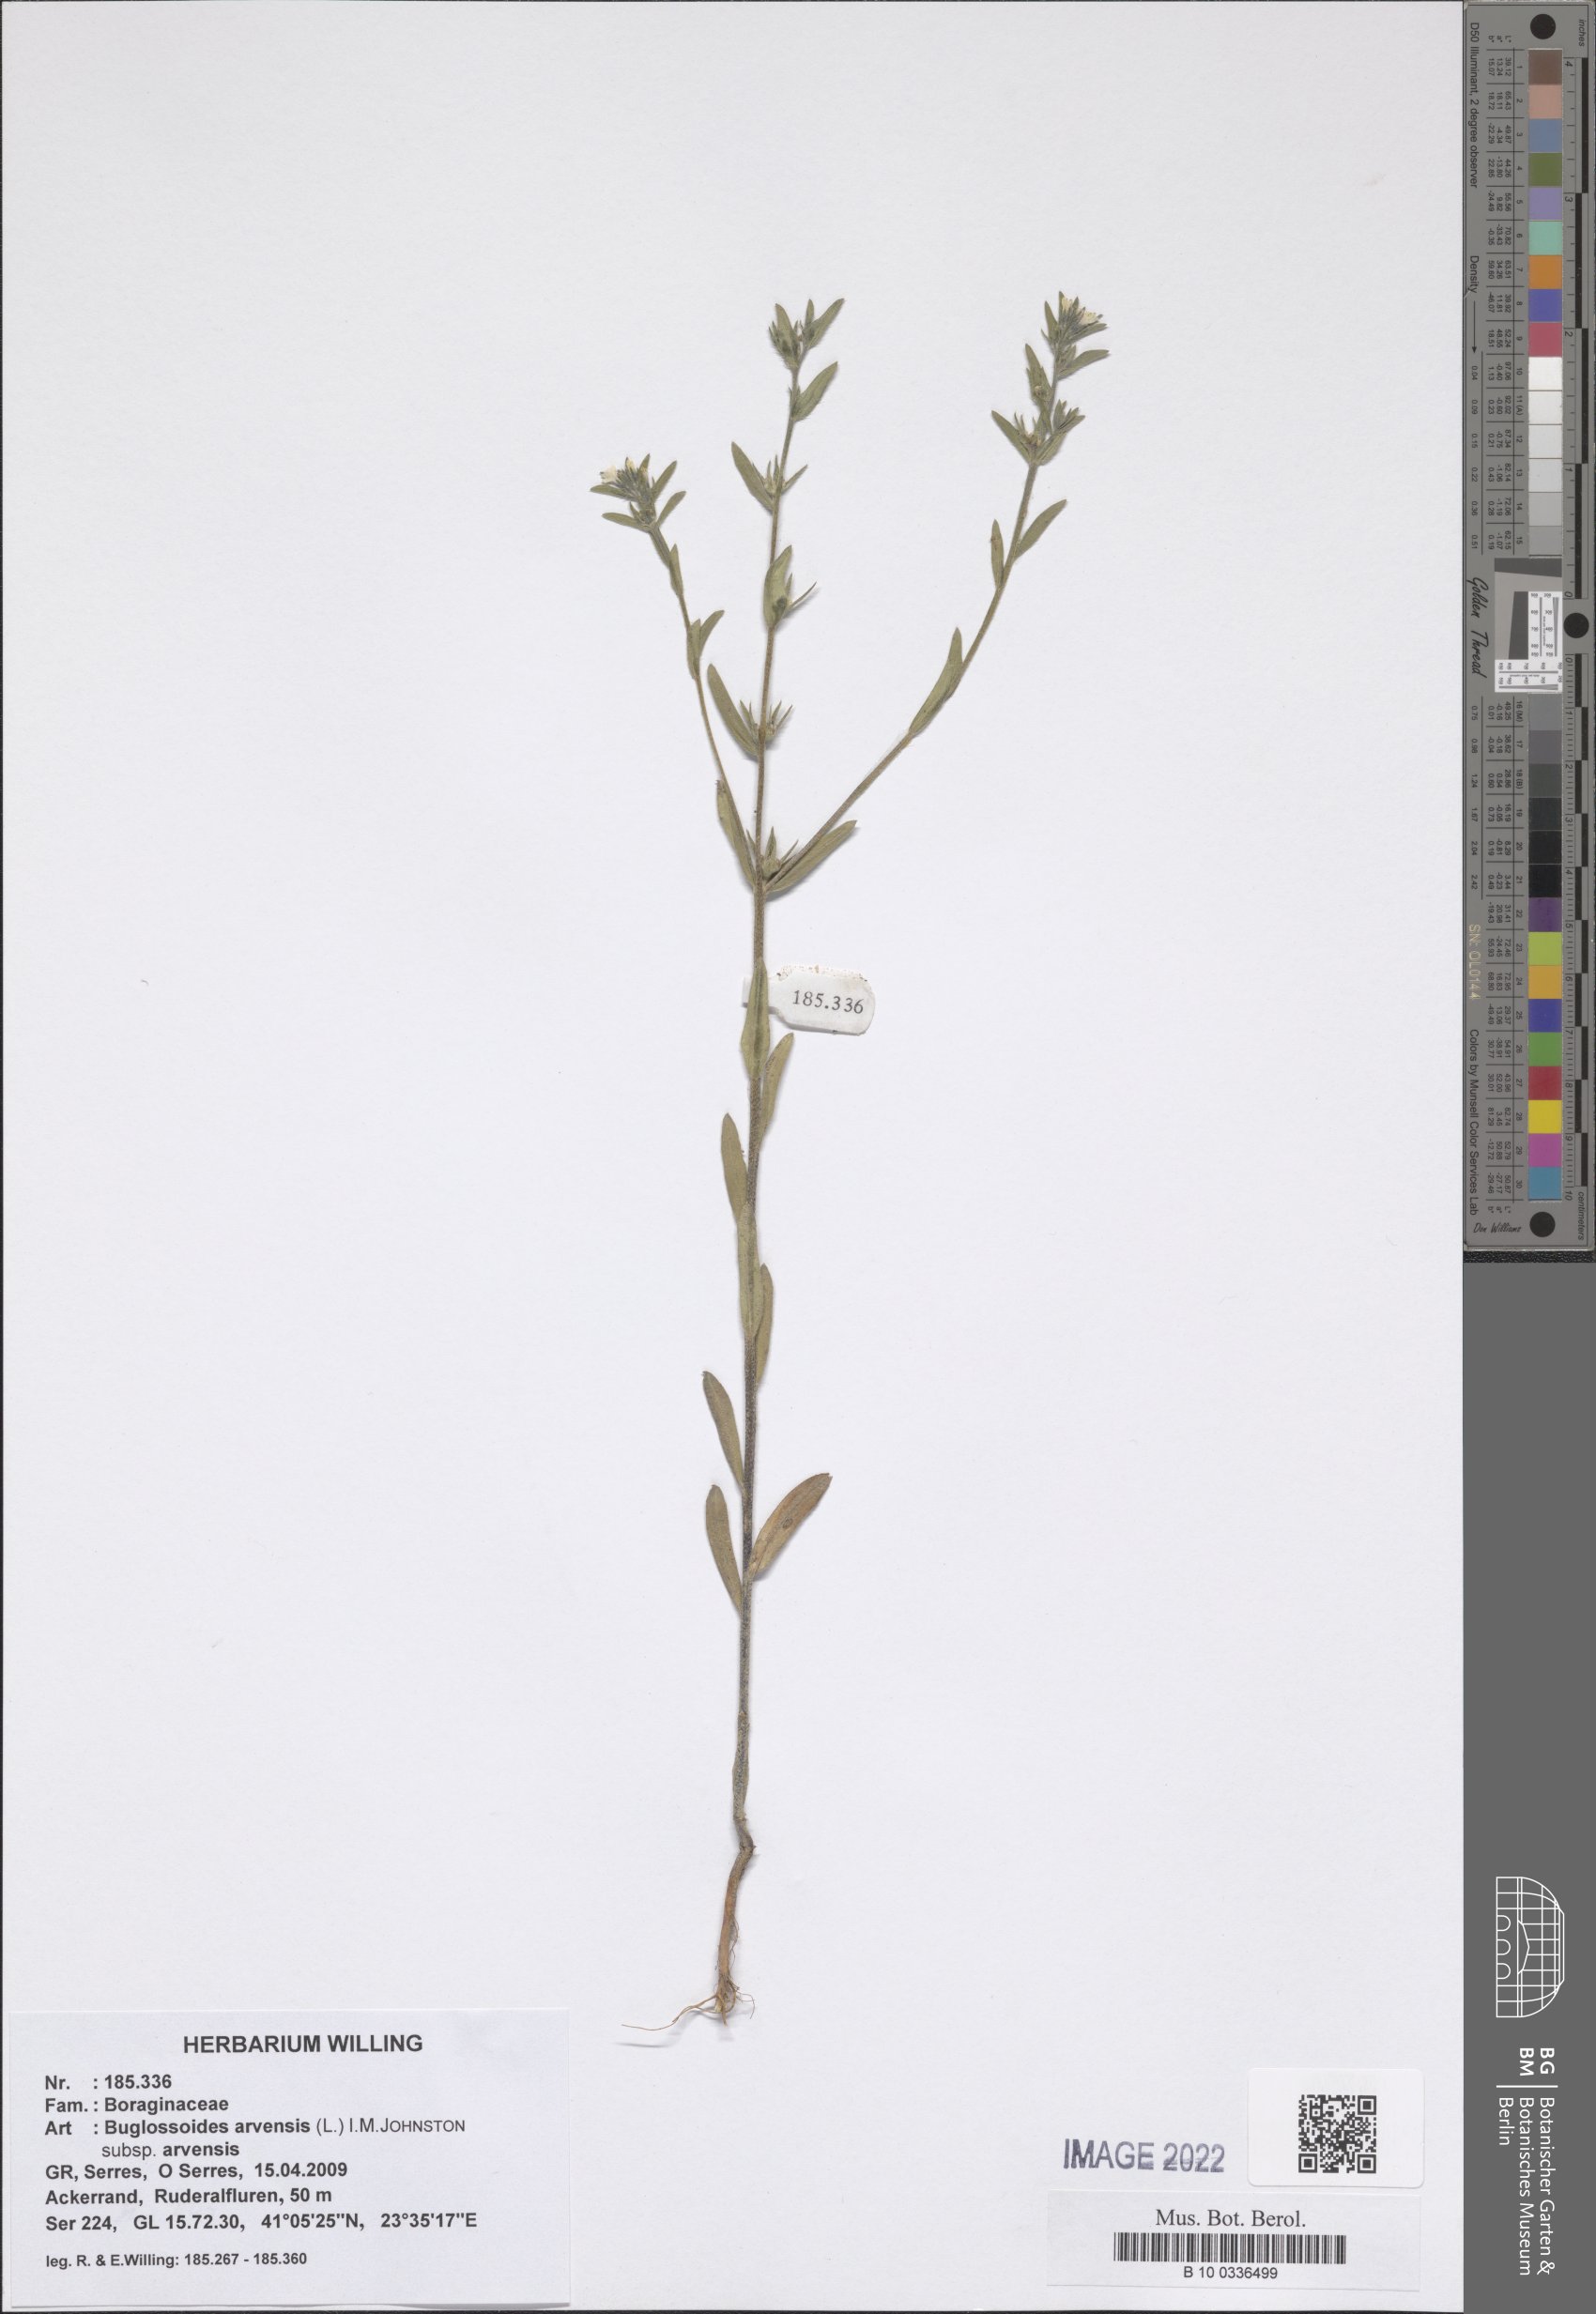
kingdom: Plantae
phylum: Tracheophyta
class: Magnoliopsida
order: Boraginales
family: Boraginaceae
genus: Buglossoides
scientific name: Buglossoides arvensis
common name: Corn gromwell
